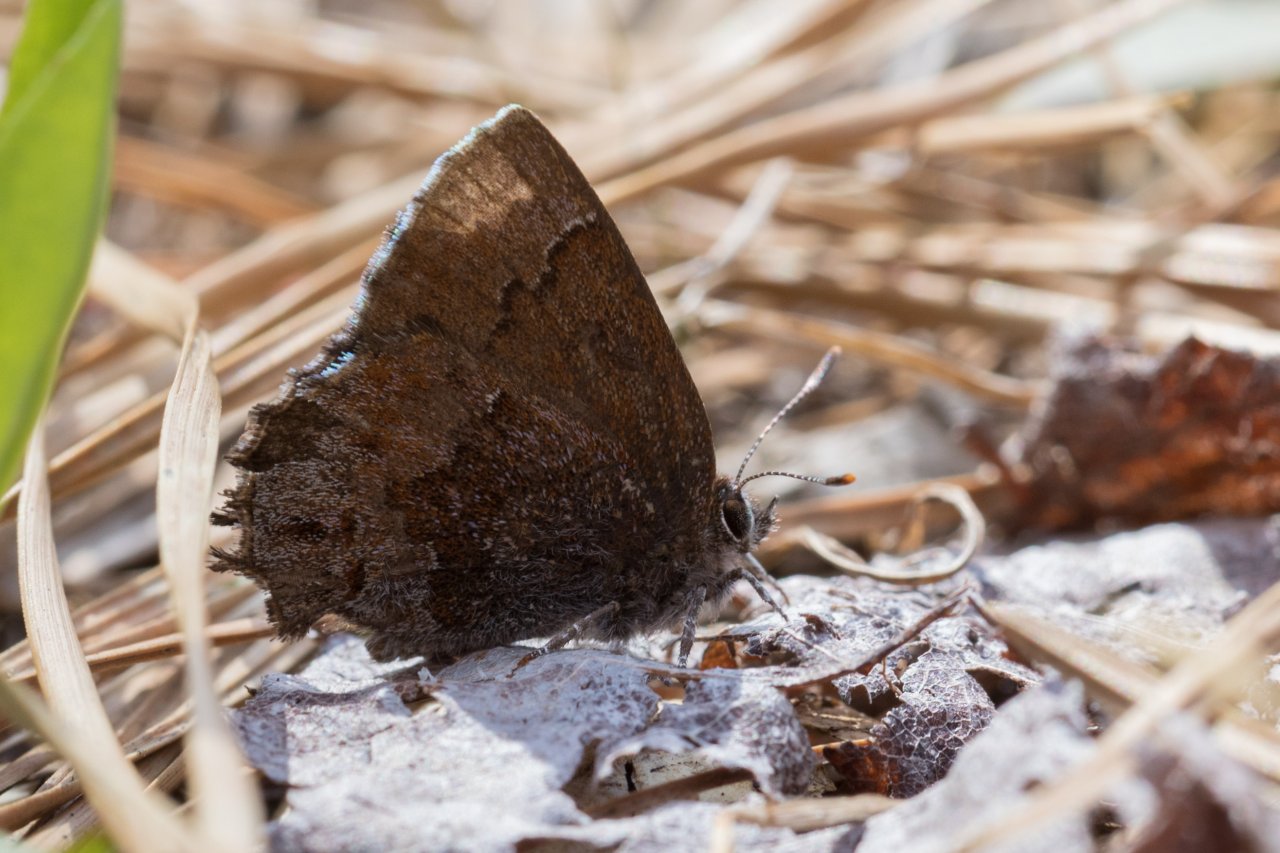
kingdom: Animalia
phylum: Arthropoda
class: Insecta
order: Lepidoptera
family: Lycaenidae
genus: Thecla
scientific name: Thecla irus
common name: Frosted Elfin
